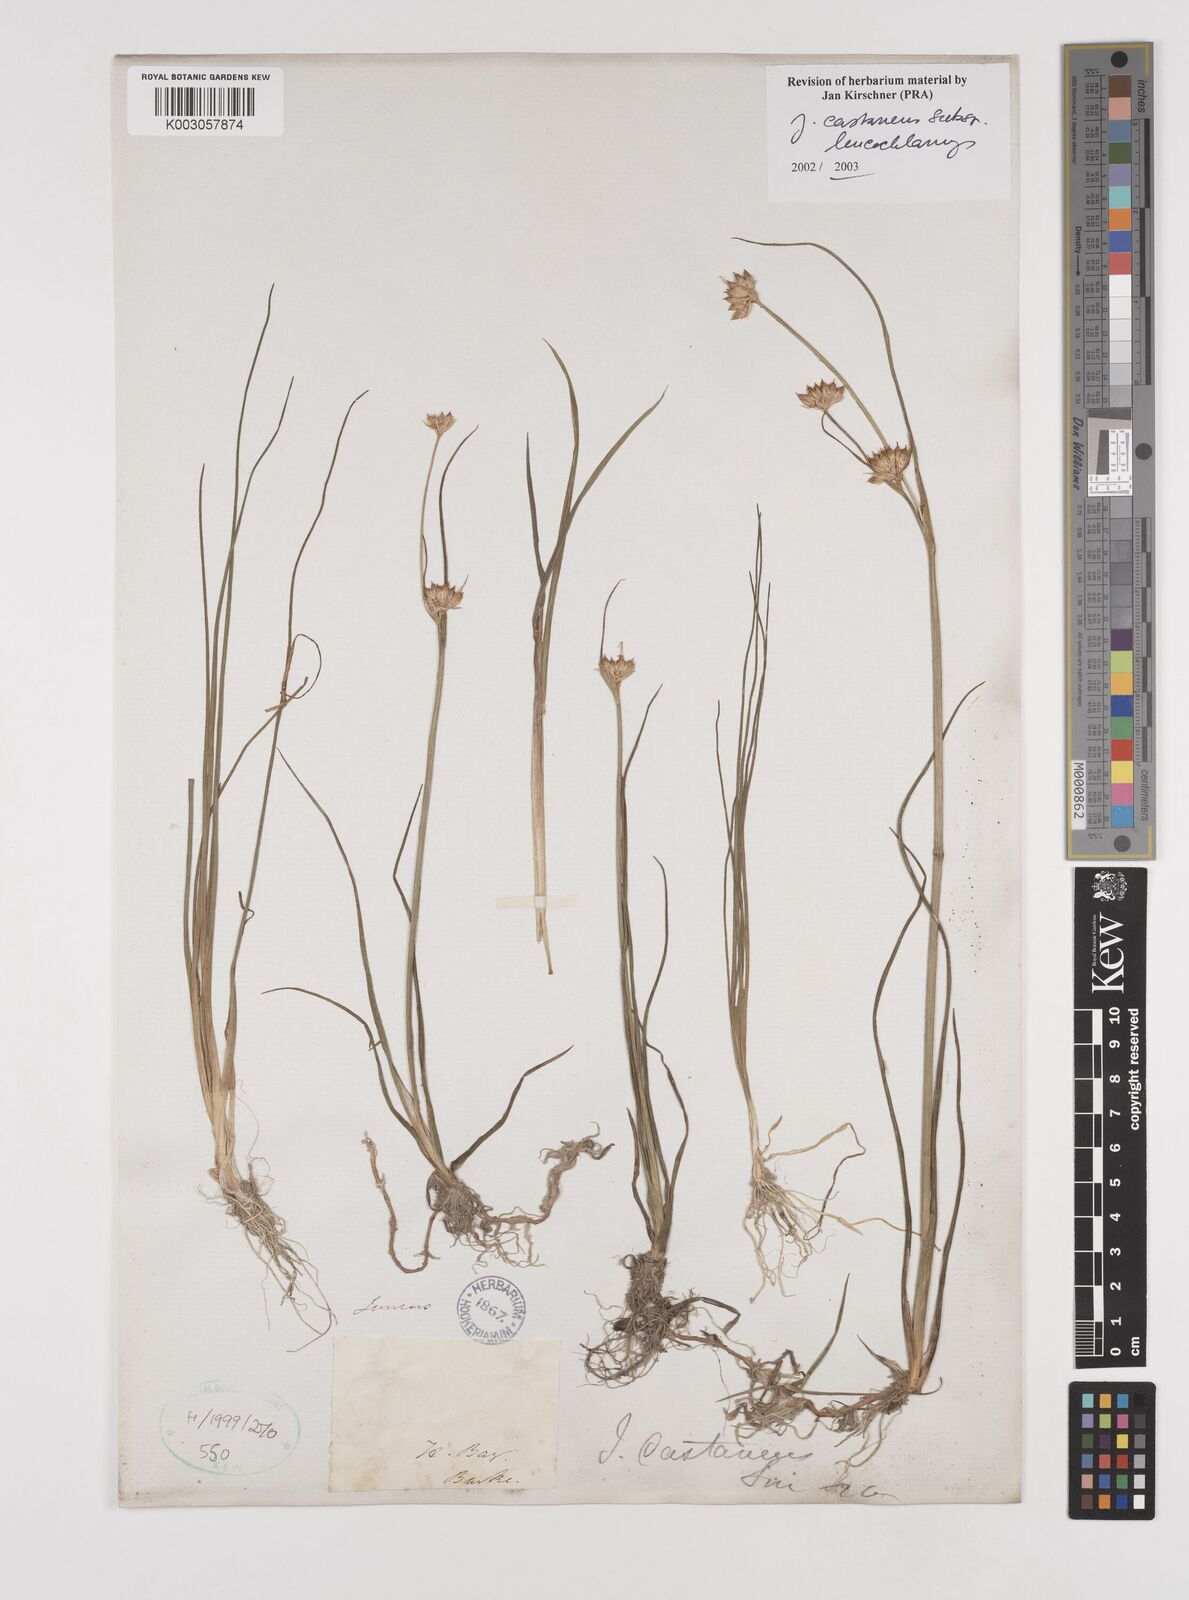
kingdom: Plantae
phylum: Tracheophyta
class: Liliopsida
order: Poales
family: Juncaceae
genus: Juncus
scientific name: Juncus castaneus
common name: Chestnut rush
